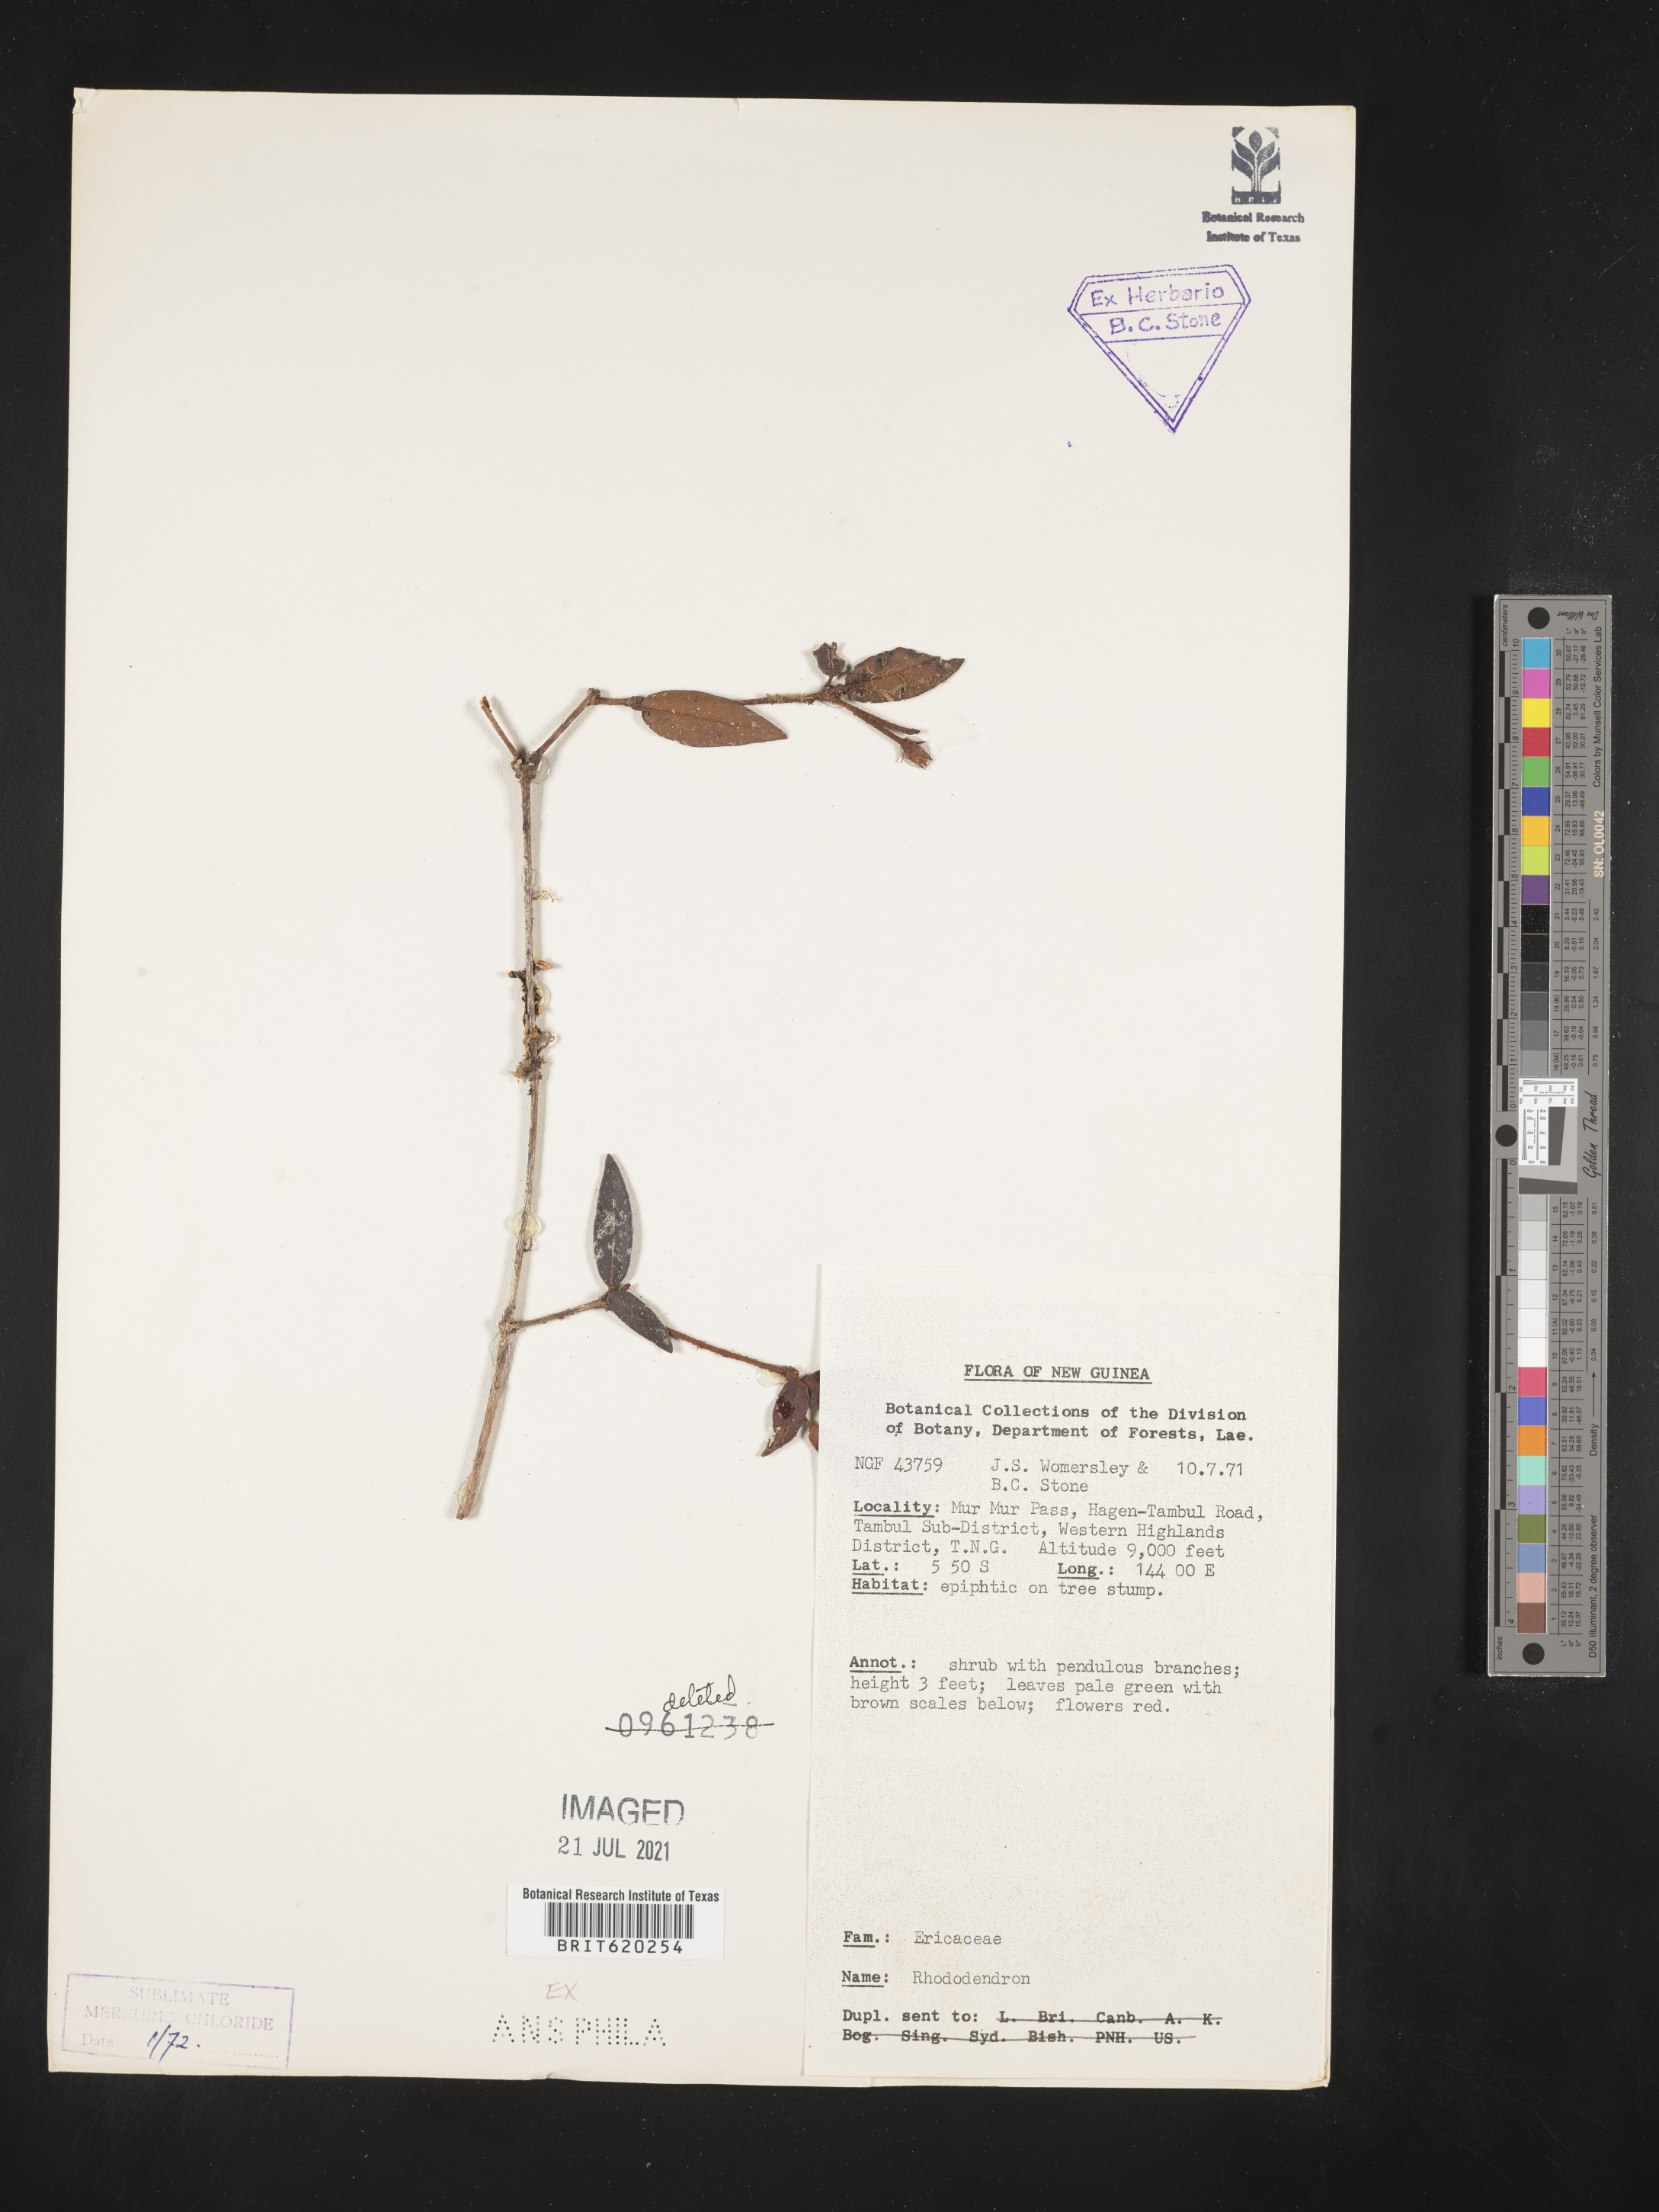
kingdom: Plantae
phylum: Tracheophyta
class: Magnoliopsida
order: Ericales
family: Ericaceae
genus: Rhododendron
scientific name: Rhododendron
